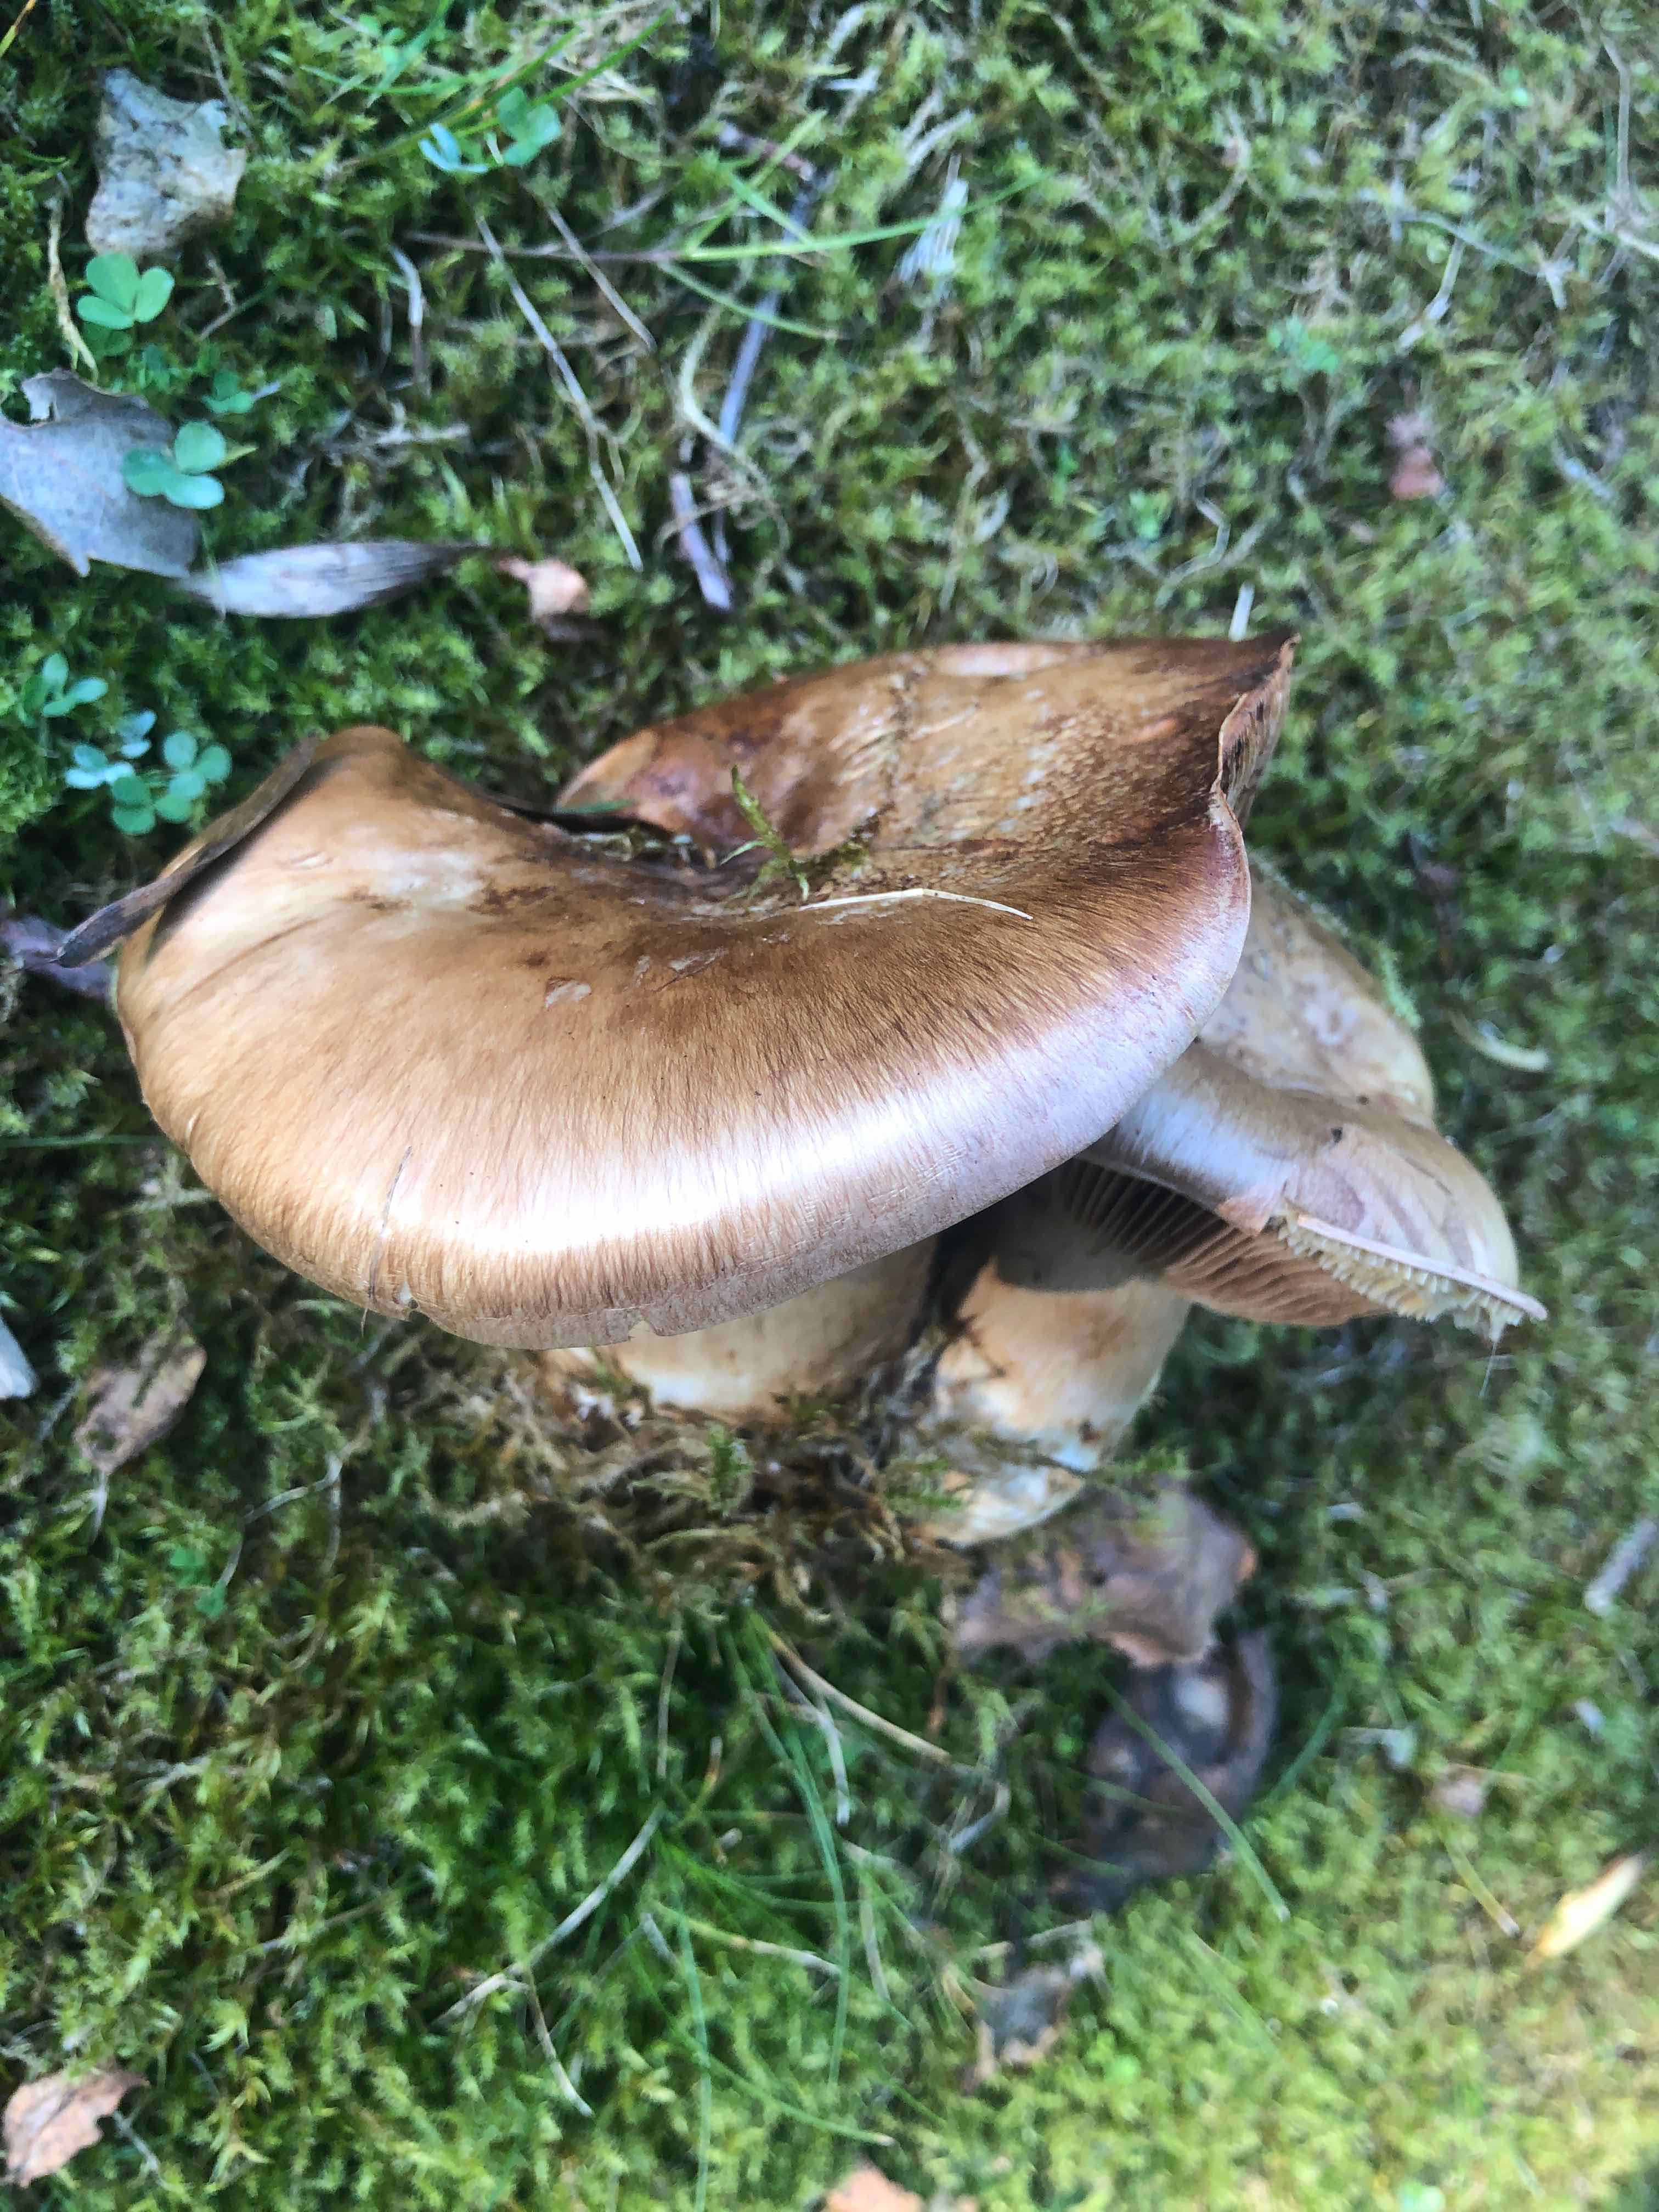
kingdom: Fungi
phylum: Basidiomycota
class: Agaricomycetes
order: Agaricales
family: Cortinariaceae
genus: Phlegmacium
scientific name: Phlegmacium balteatocumatile
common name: violettrådet slørhat
